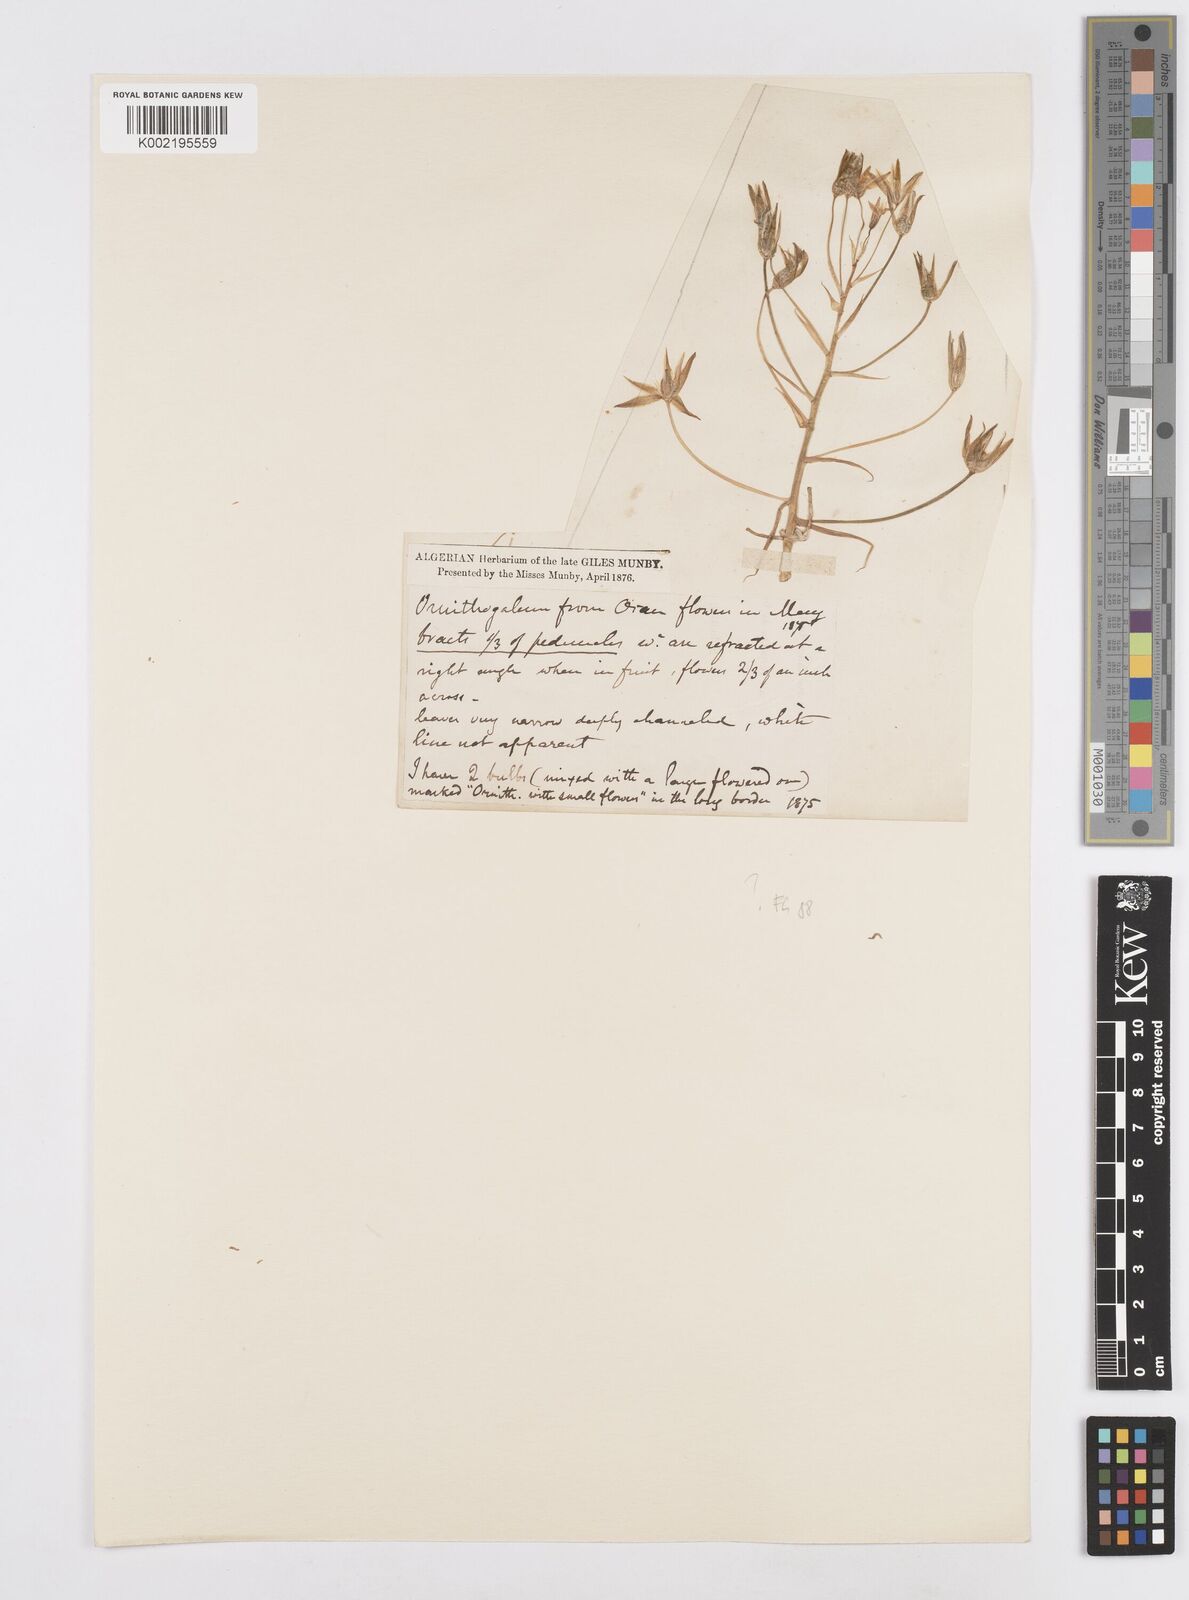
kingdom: Plantae
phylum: Tracheophyta
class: Liliopsida
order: Asparagales
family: Asparagaceae
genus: Ornithogalum
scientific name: Ornithogalum umbellatum
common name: Garden star-of-bethlehem
